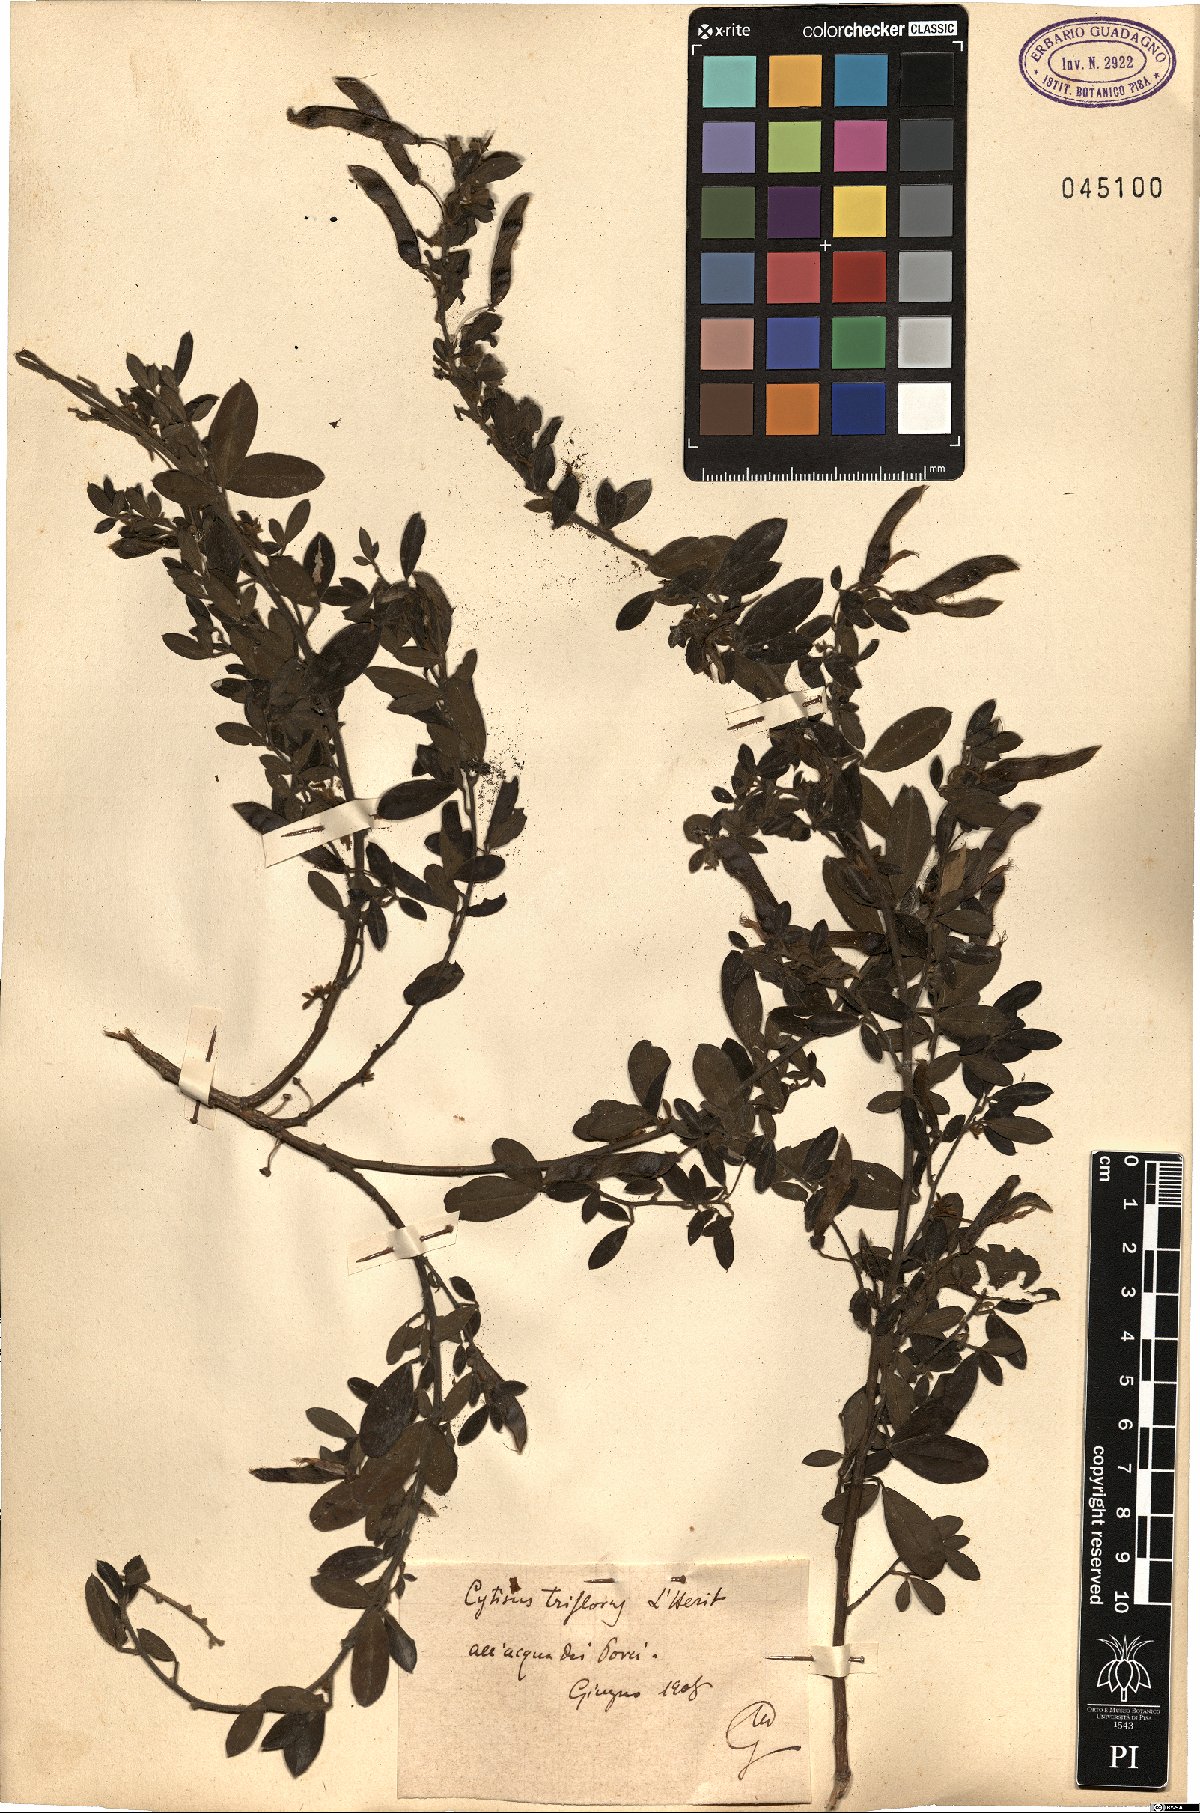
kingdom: Plantae
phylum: Tracheophyta
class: Magnoliopsida
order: Fabales
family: Fabaceae
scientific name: Fabaceae
